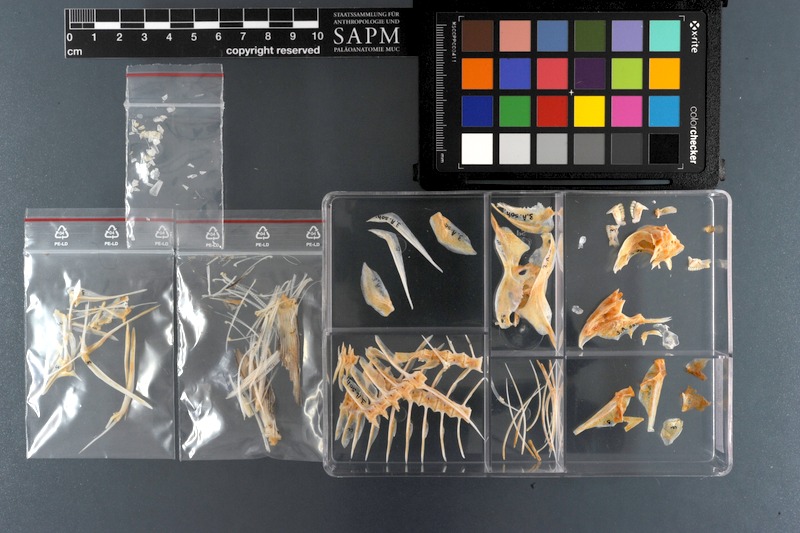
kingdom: Animalia
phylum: Chordata
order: Perciformes
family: Acanthuridae
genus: Acanthurus
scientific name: Acanthurus sohal
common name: Red sea surgeonfish
